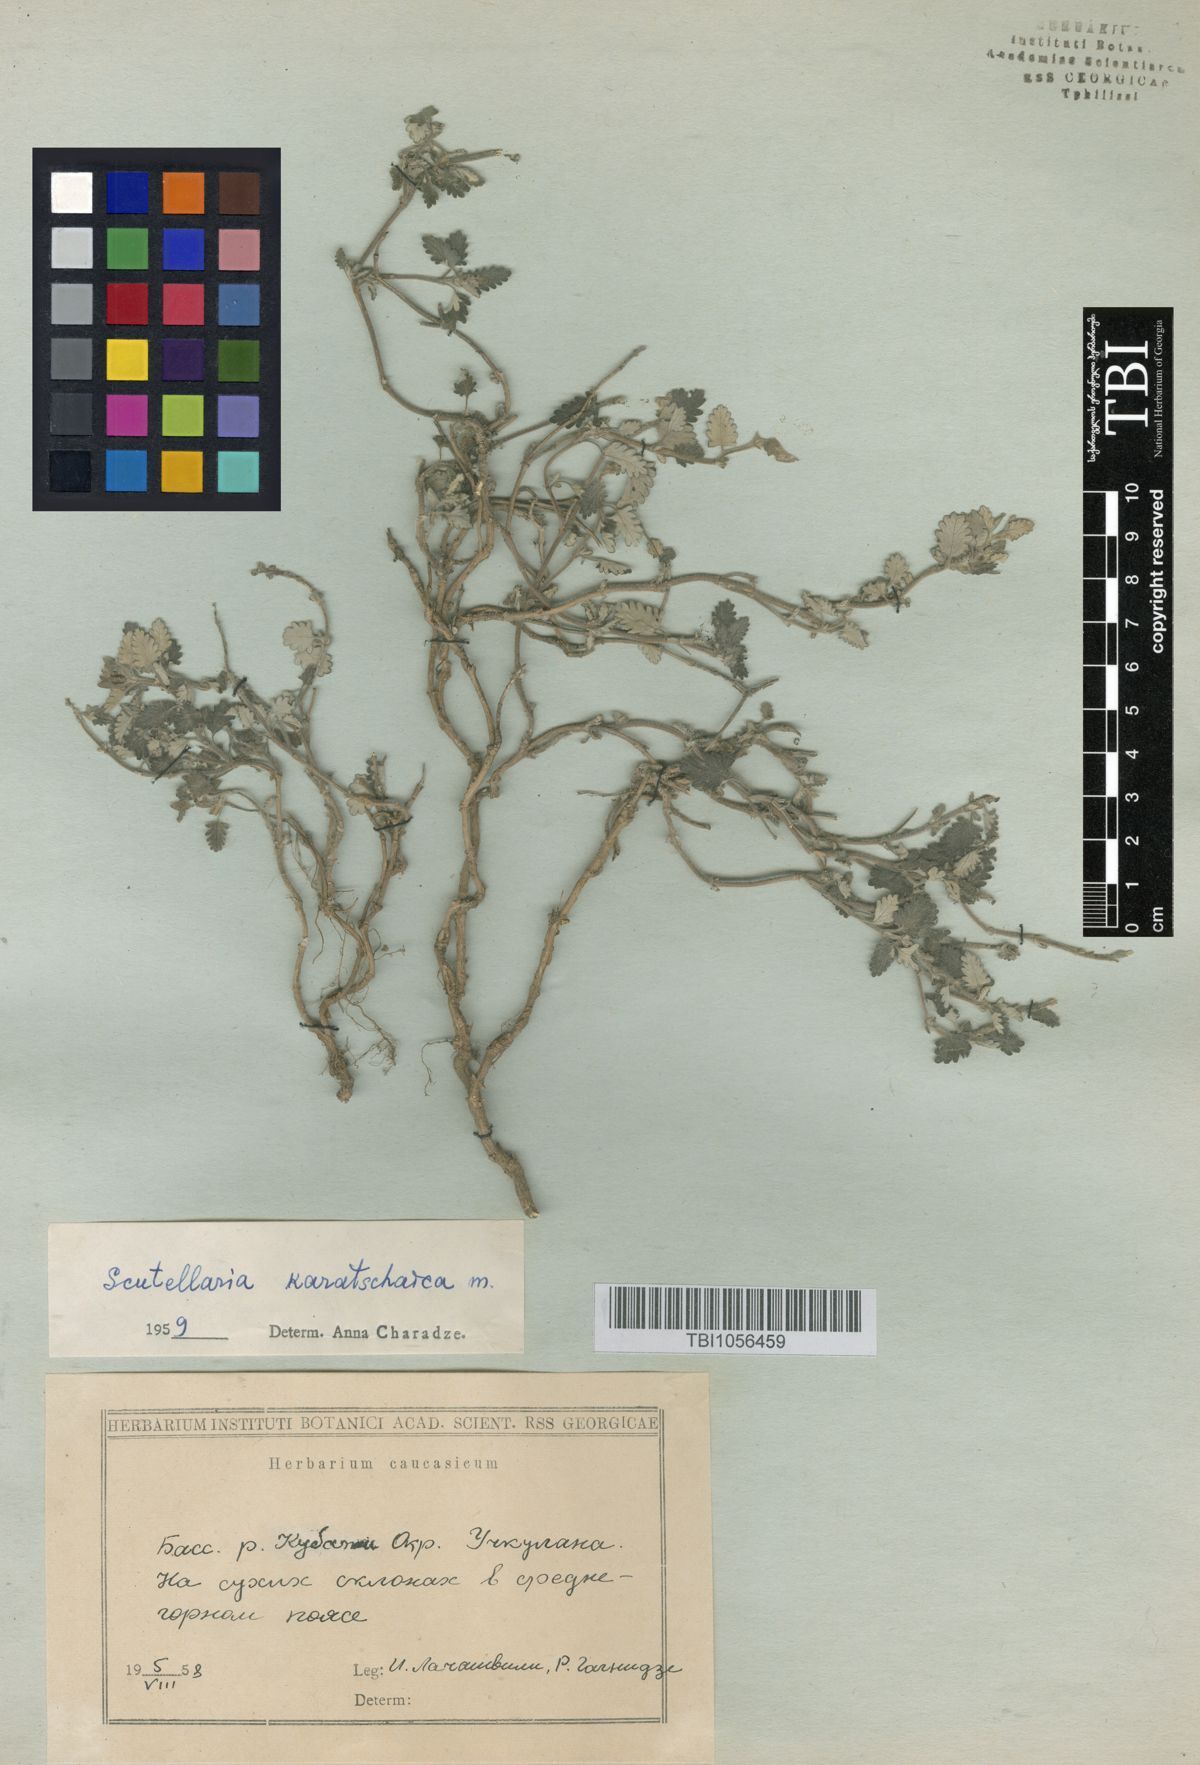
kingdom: Plantae
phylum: Tracheophyta
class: Magnoliopsida
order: Lamiales
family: Lamiaceae
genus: Scutellaria
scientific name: Scutellaria orientalis
